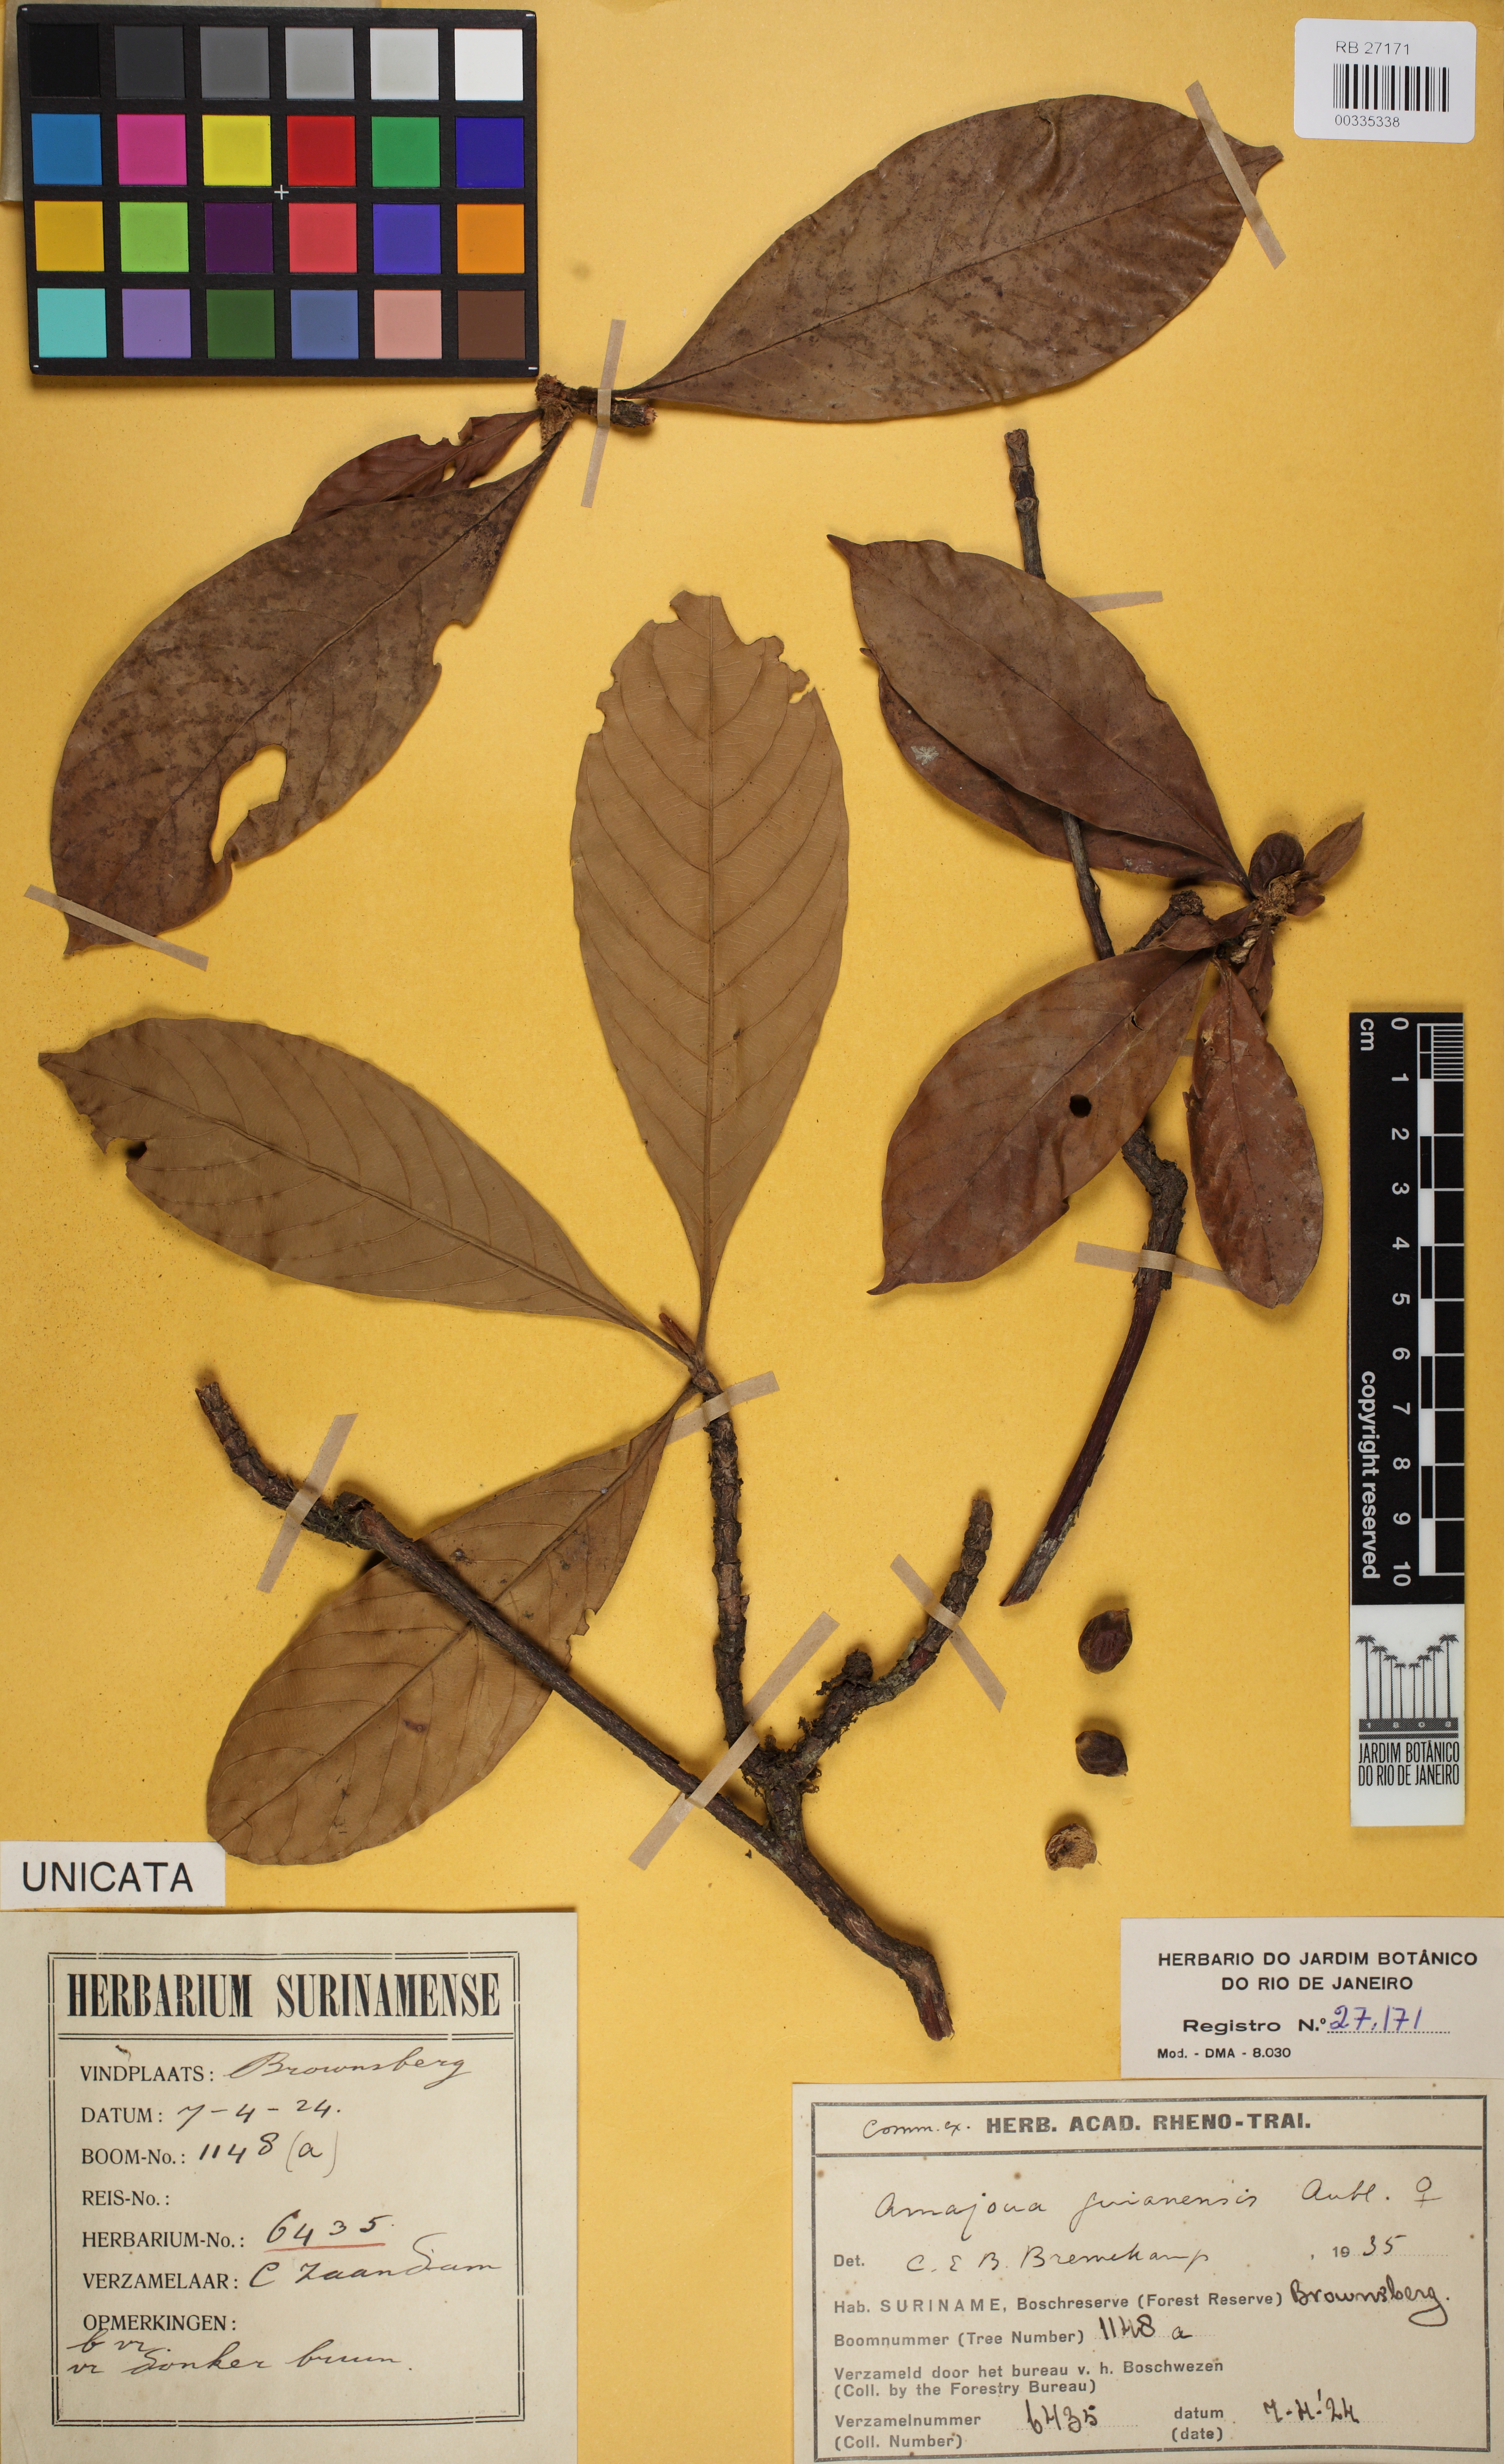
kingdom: Plantae
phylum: Tracheophyta
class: Magnoliopsida
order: Gentianales
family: Rubiaceae
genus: Amaioua
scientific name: Amaioua guianensis
